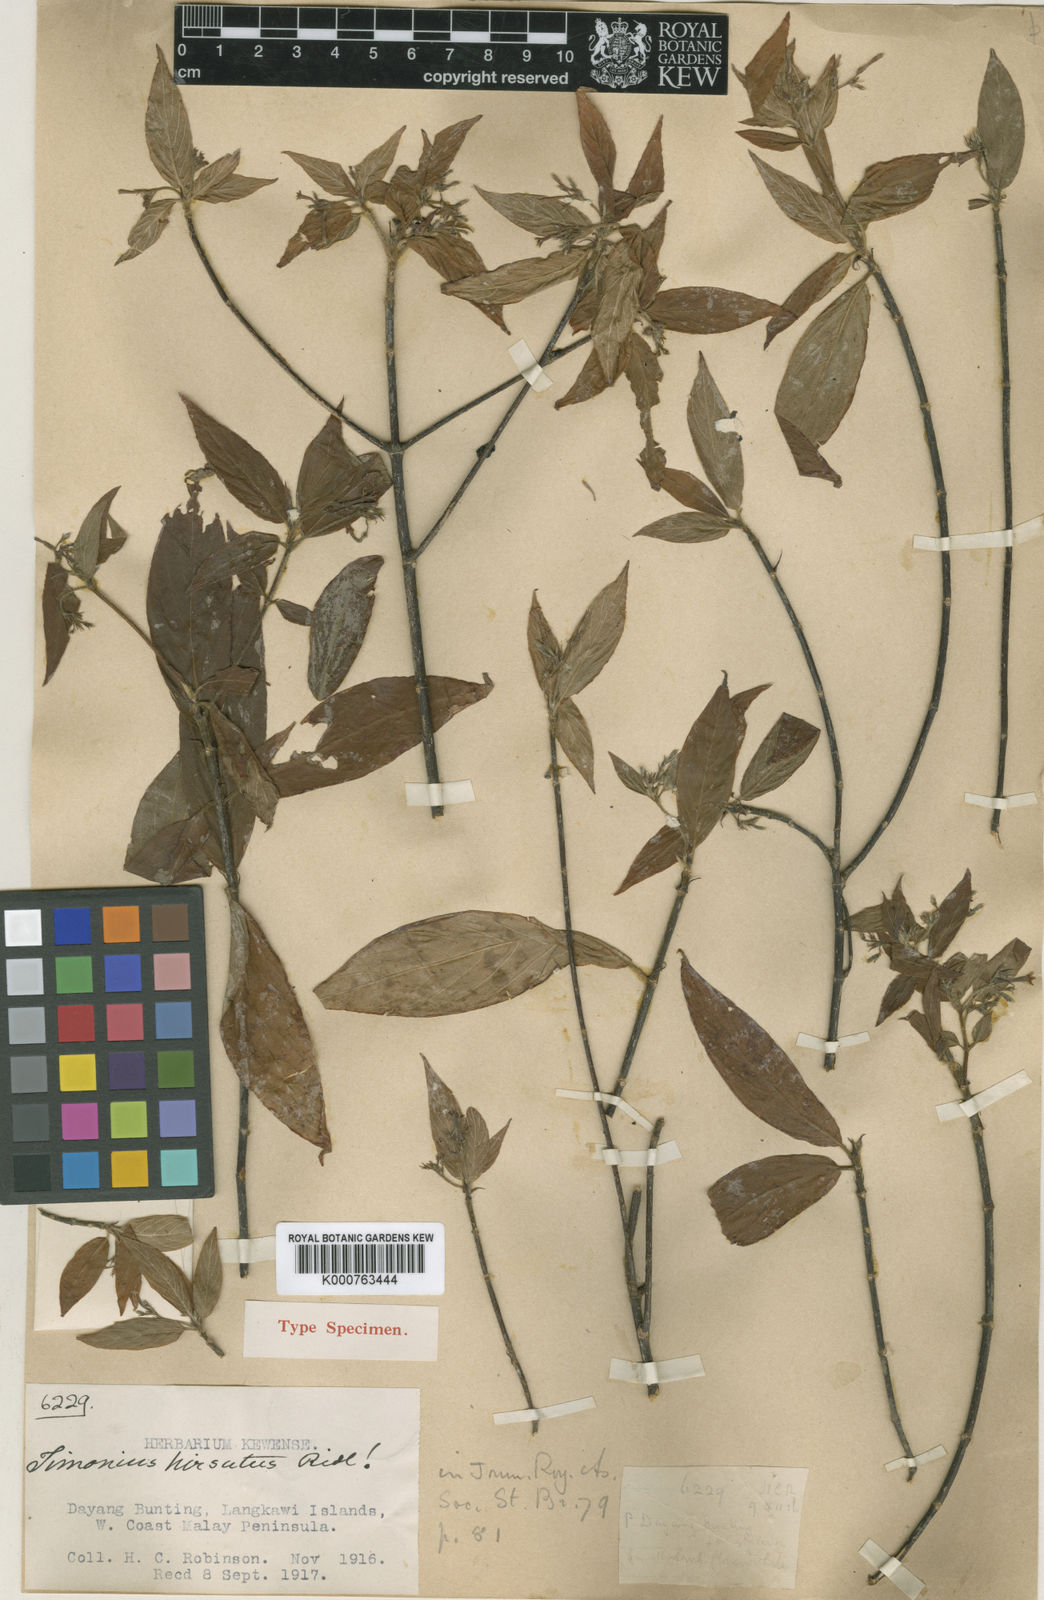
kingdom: Plantae
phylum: Tracheophyta
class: Magnoliopsida
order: Gentianales
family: Rubiaceae
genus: Guettardella
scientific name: Guettardella atropurpurea
